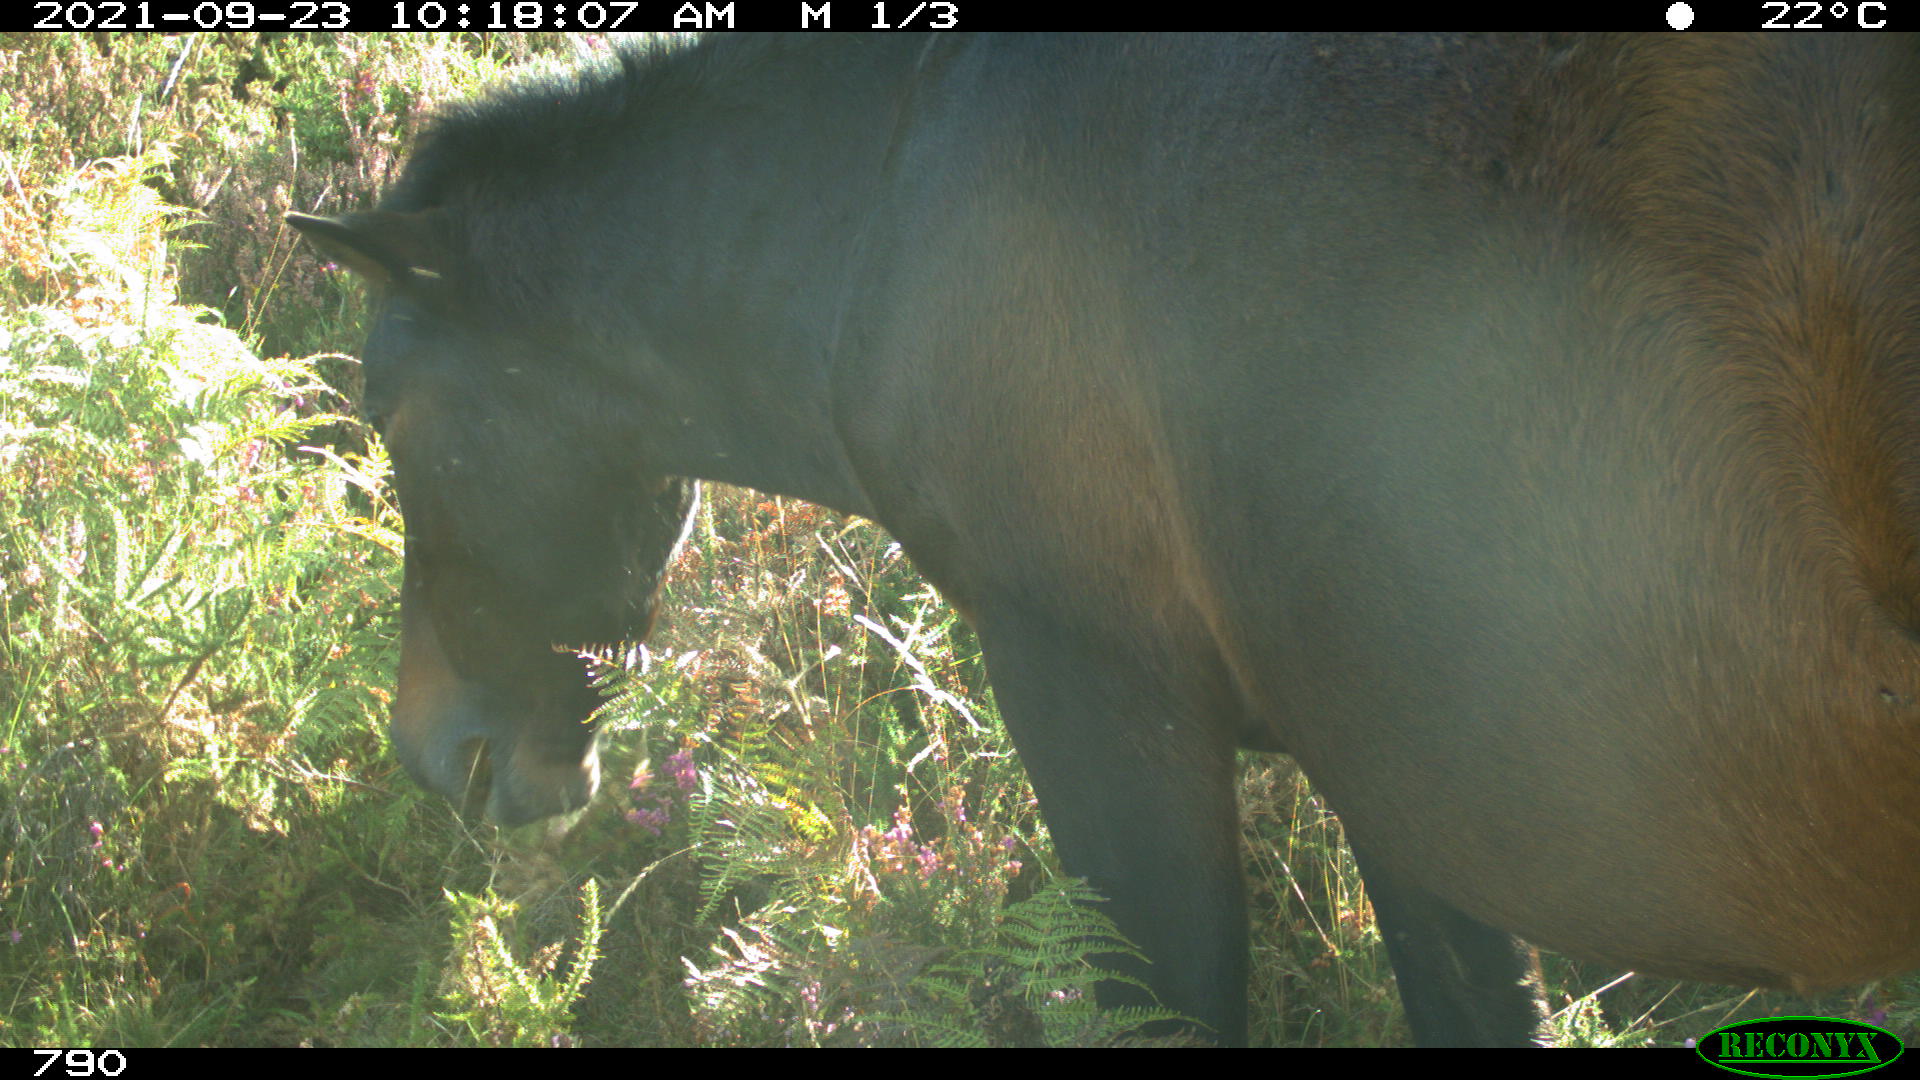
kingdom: Animalia
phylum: Chordata
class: Mammalia
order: Perissodactyla
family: Equidae
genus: Equus
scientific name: Equus caballus
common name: Horse
